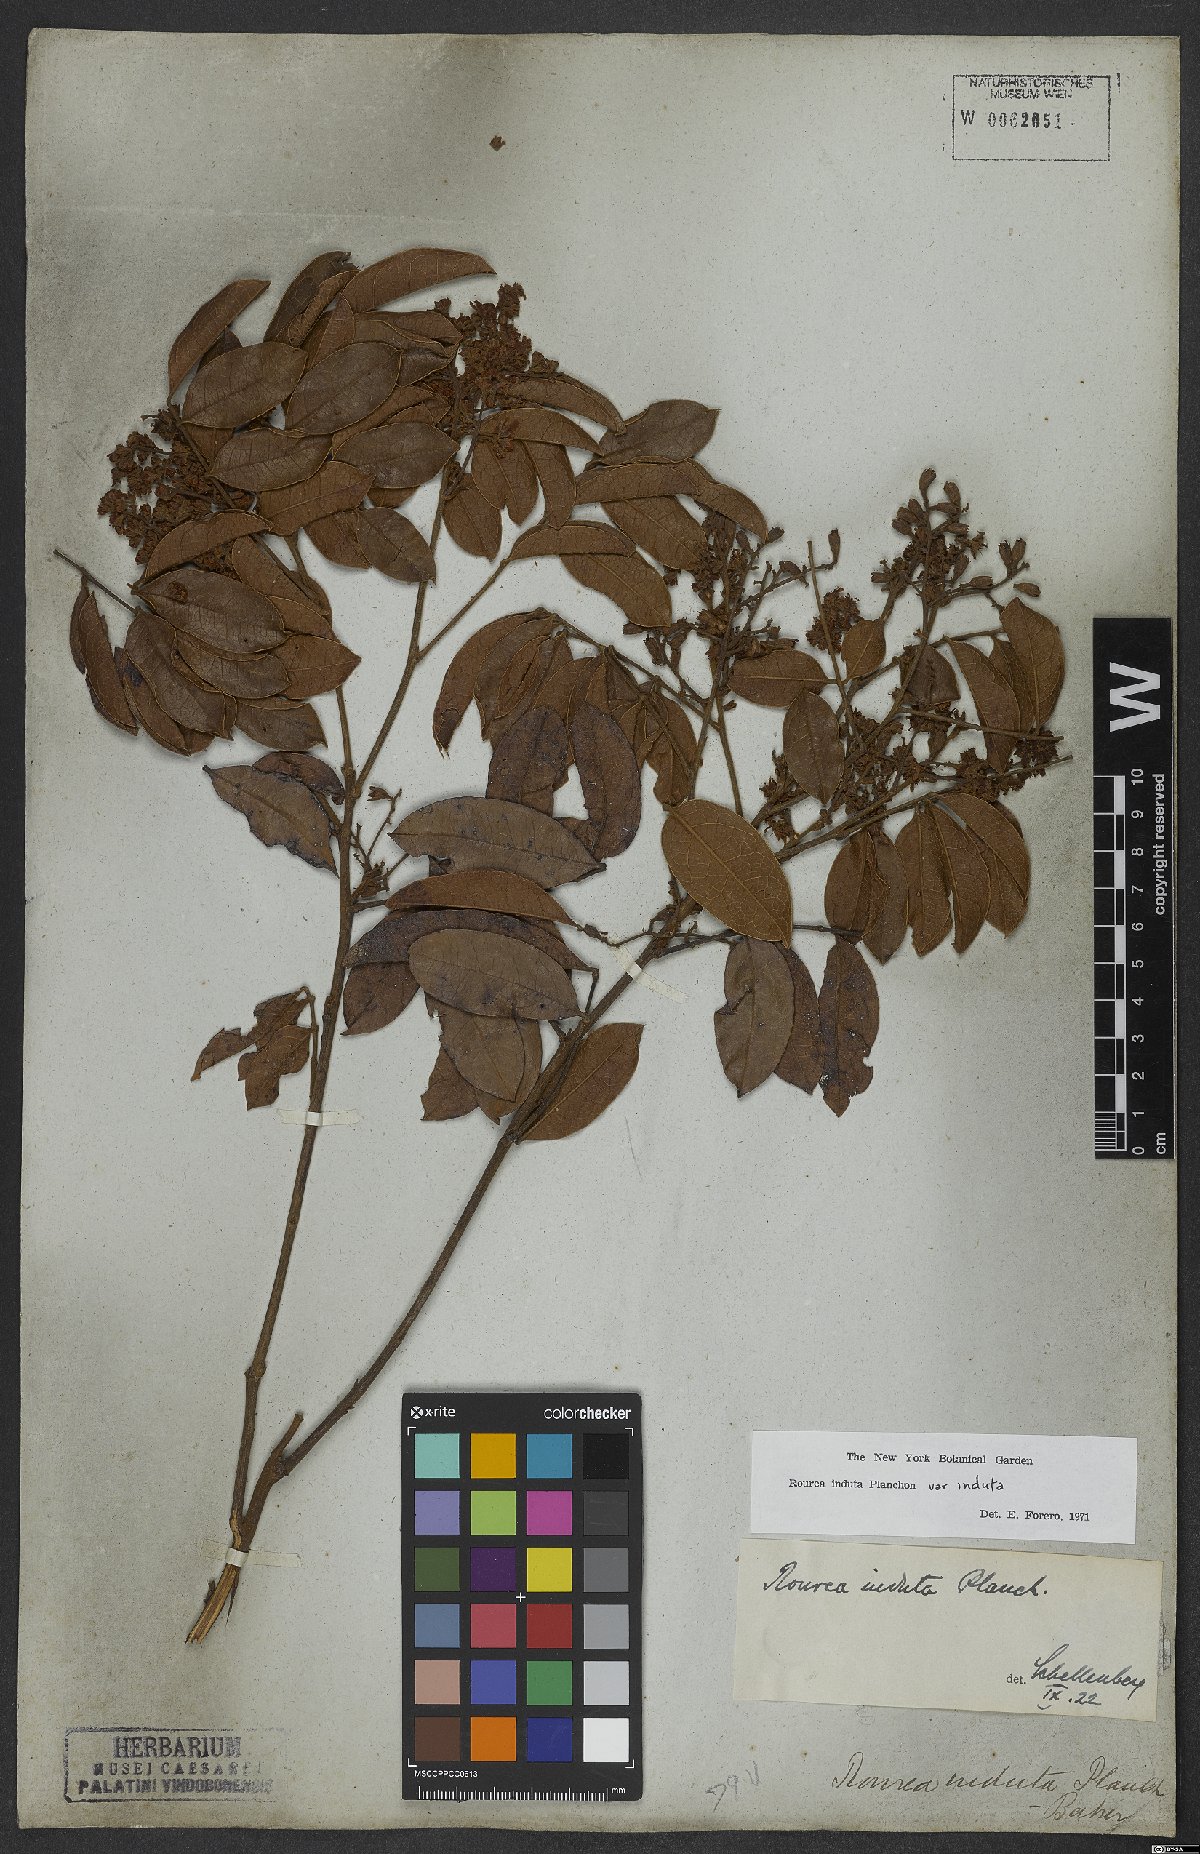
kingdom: Plantae
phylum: Tracheophyta
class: Magnoliopsida
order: Oxalidales
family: Connaraceae
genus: Rourea
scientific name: Rourea induta
